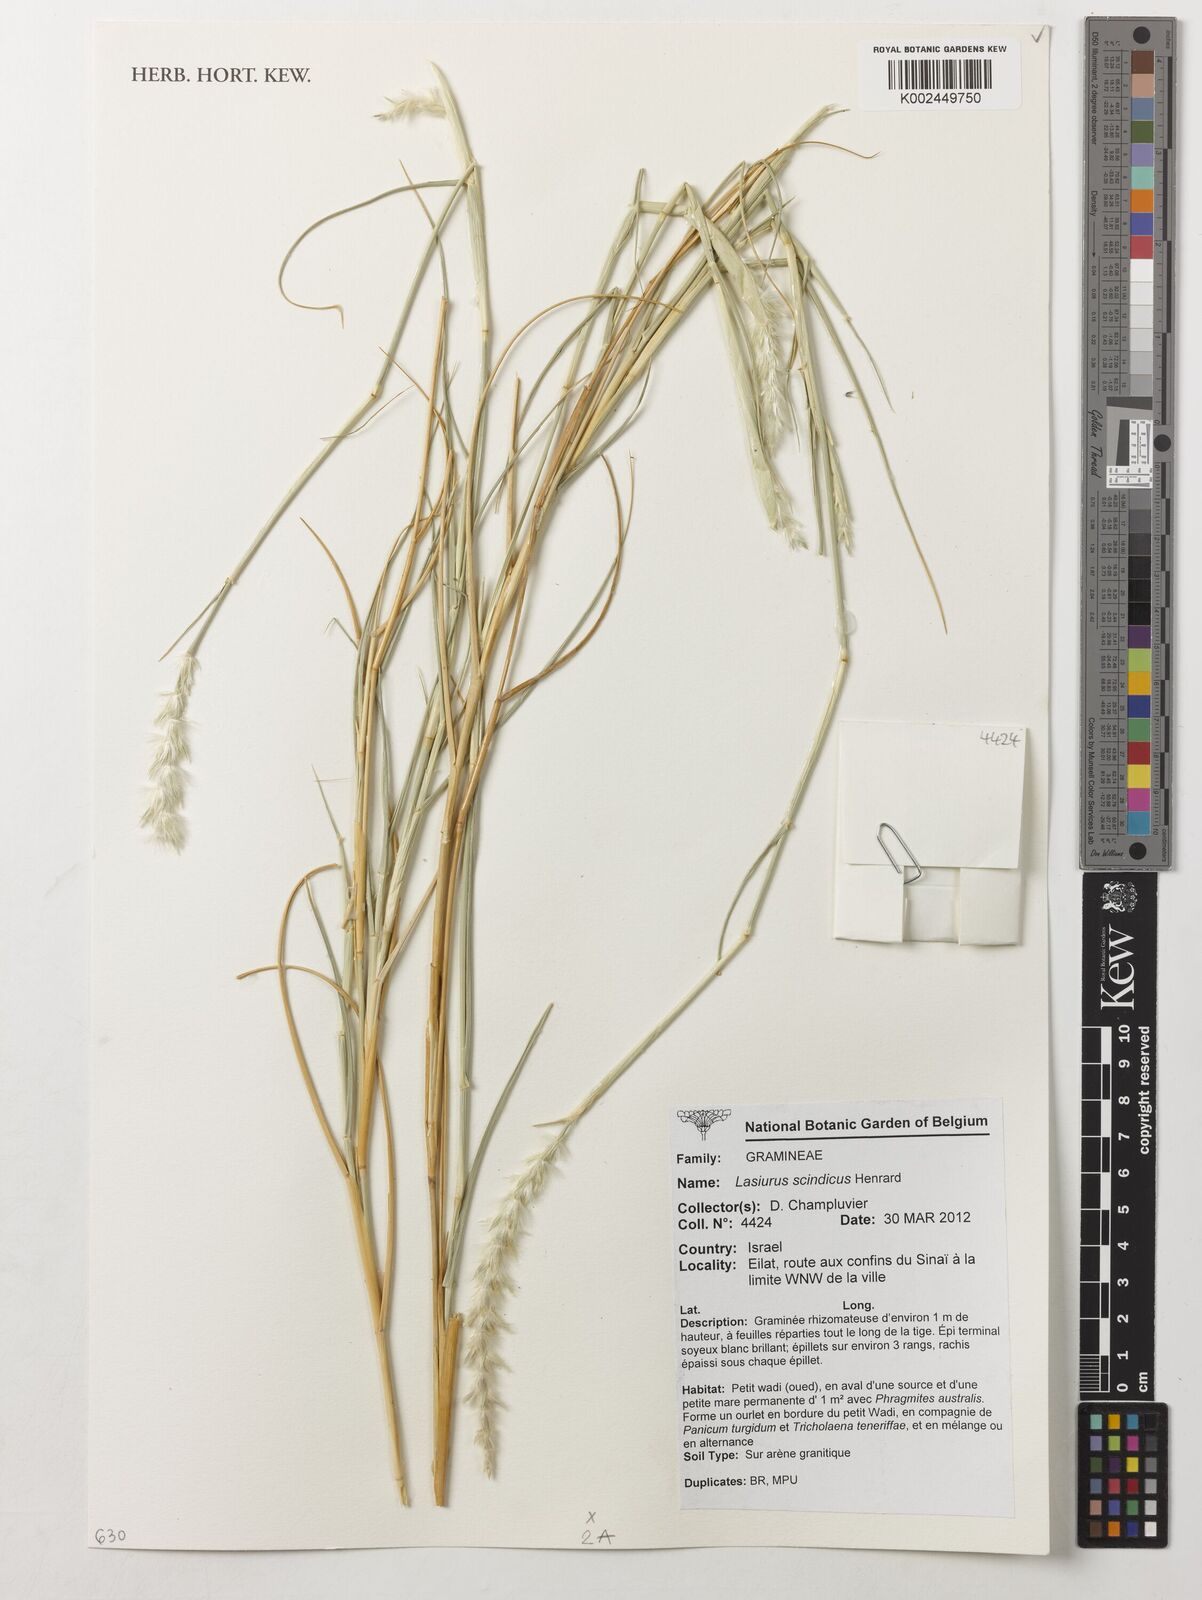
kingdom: Plantae
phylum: Tracheophyta
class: Liliopsida
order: Poales
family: Poaceae
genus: Lasiurus
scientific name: Lasiurus scindicus
